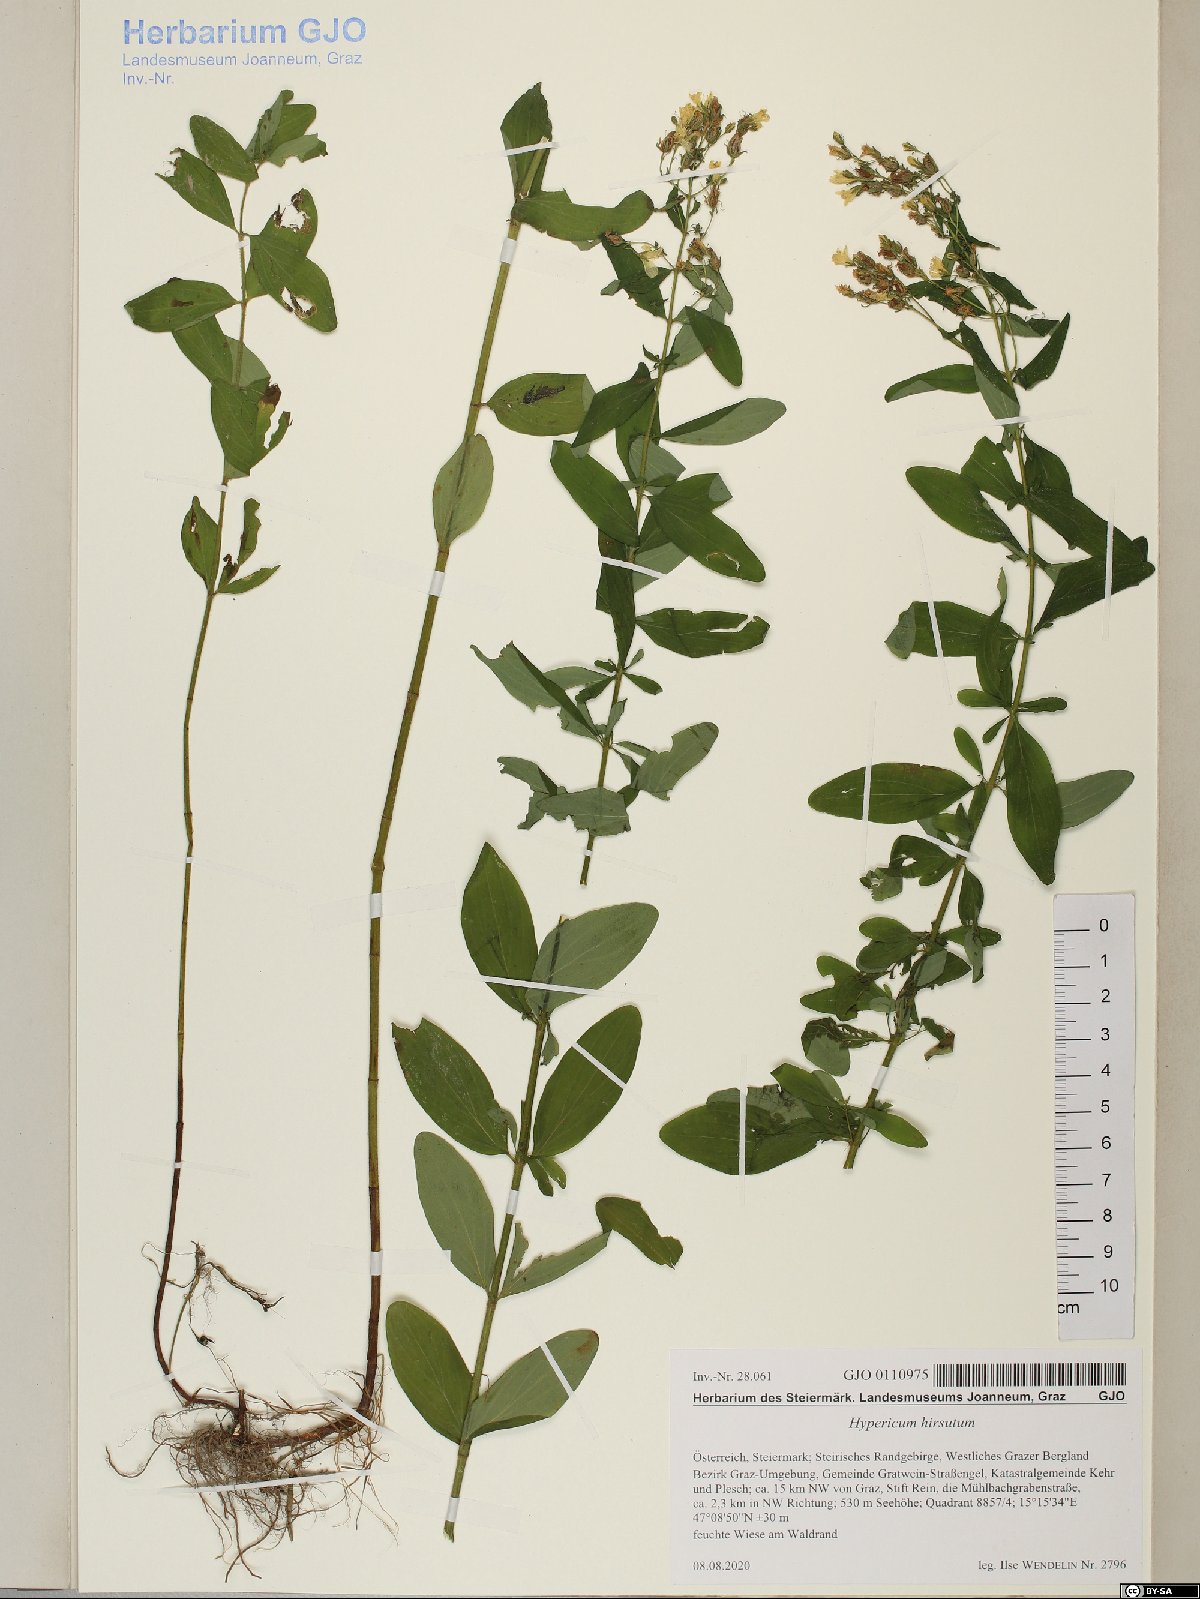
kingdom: Plantae
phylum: Tracheophyta
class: Magnoliopsida
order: Malpighiales
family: Hypericaceae
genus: Hypericum
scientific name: Hypericum hirsutum
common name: Hairy st. john's-wort
